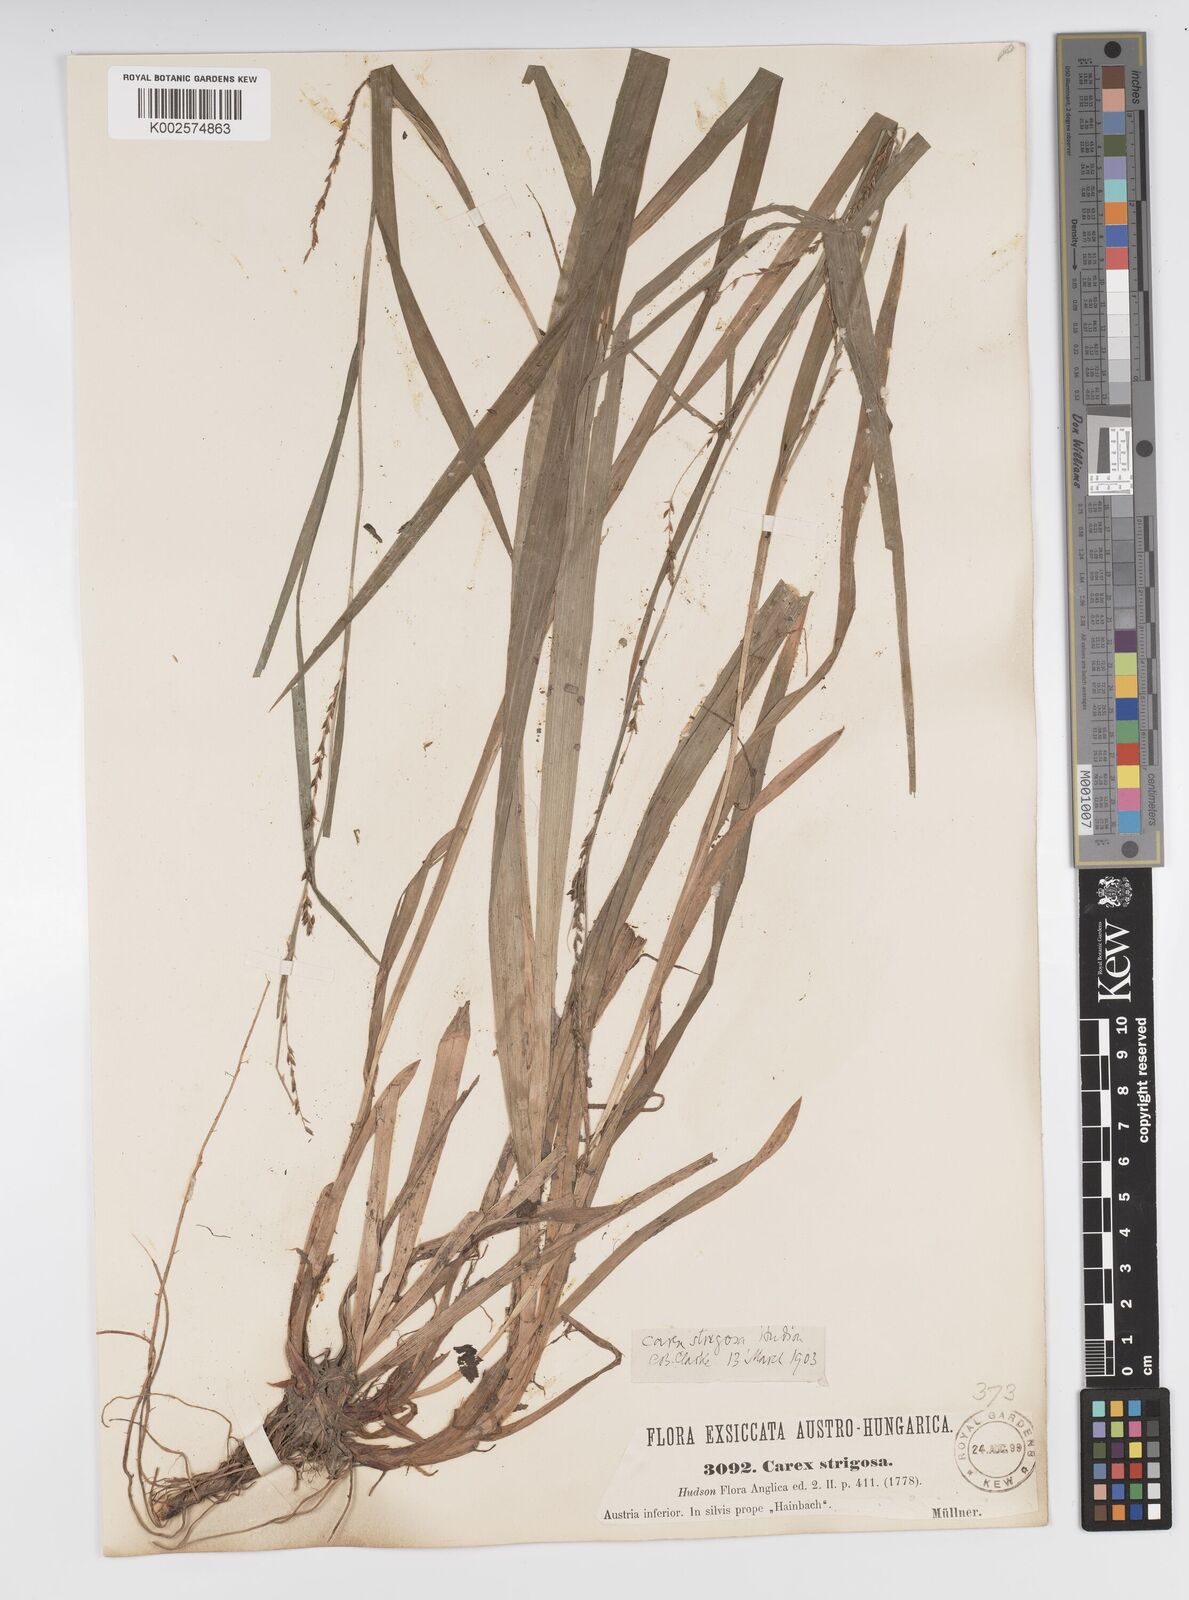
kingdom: Plantae
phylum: Tracheophyta
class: Liliopsida
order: Poales
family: Cyperaceae
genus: Carex
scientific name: Carex strigosa
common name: Thin-spiked wood-sedge
